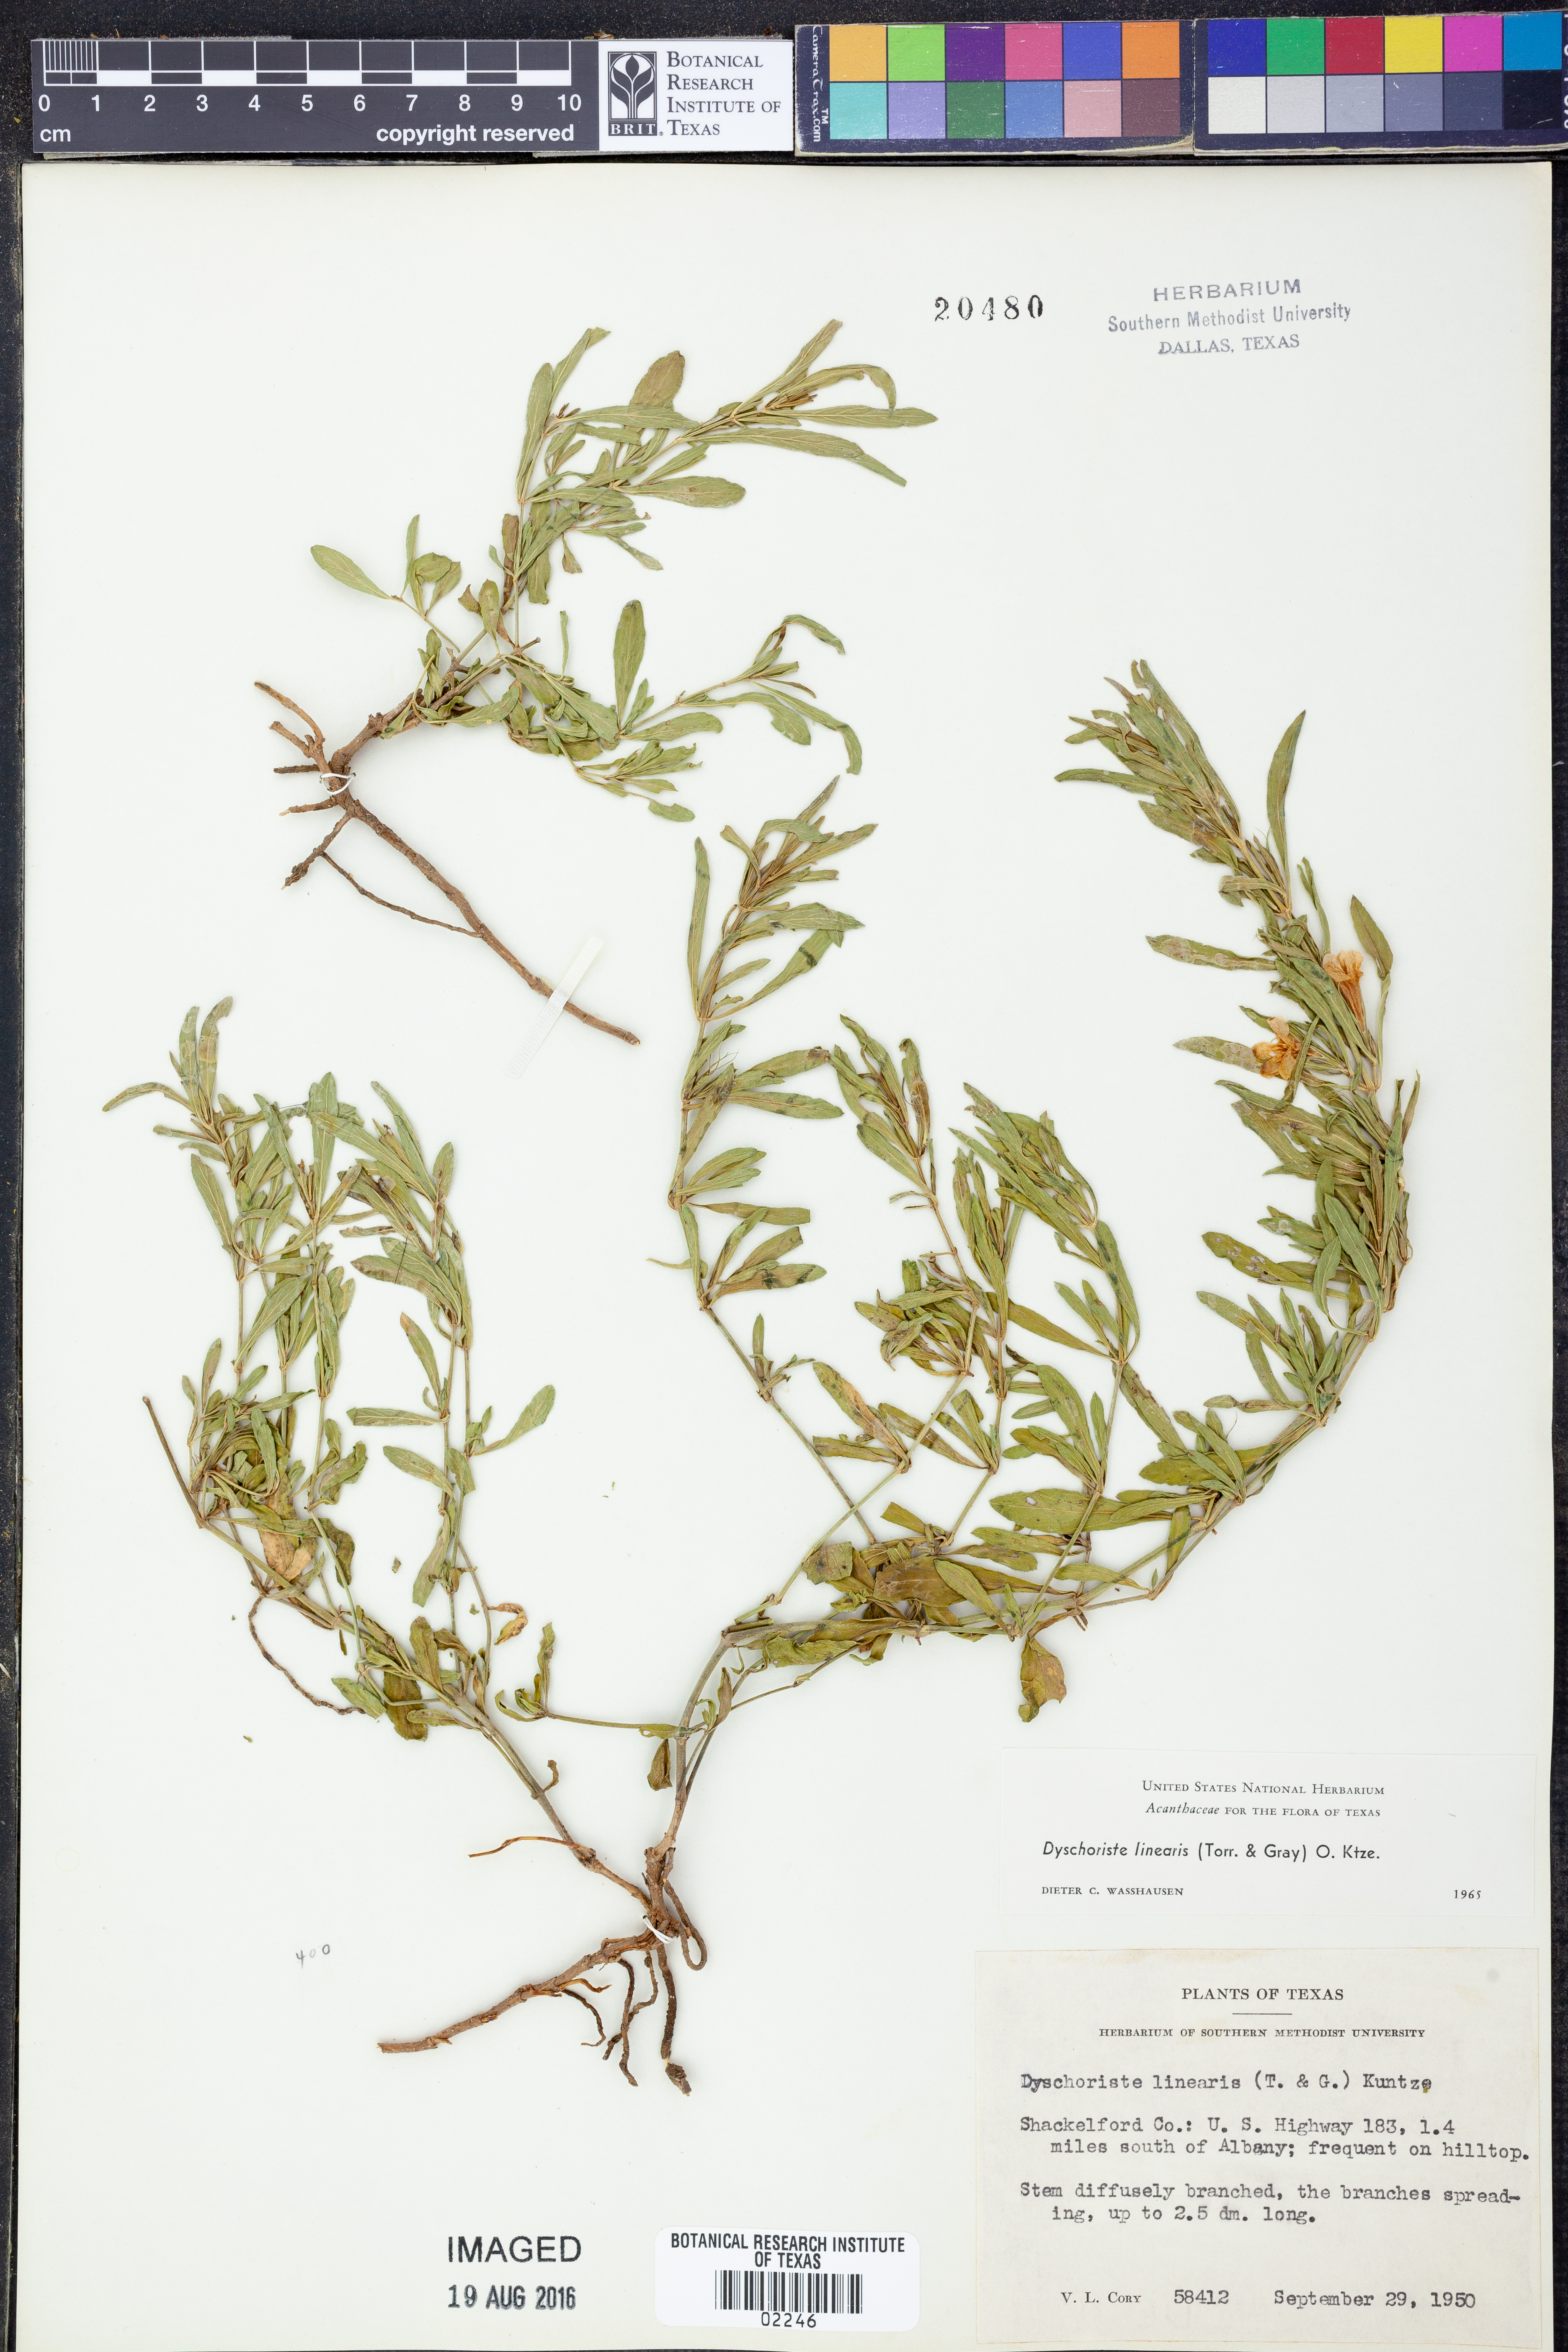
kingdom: Plantae
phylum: Tracheophyta
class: Magnoliopsida
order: Lamiales
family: Acanthaceae
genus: Dyschoriste
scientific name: Dyschoriste linearis
